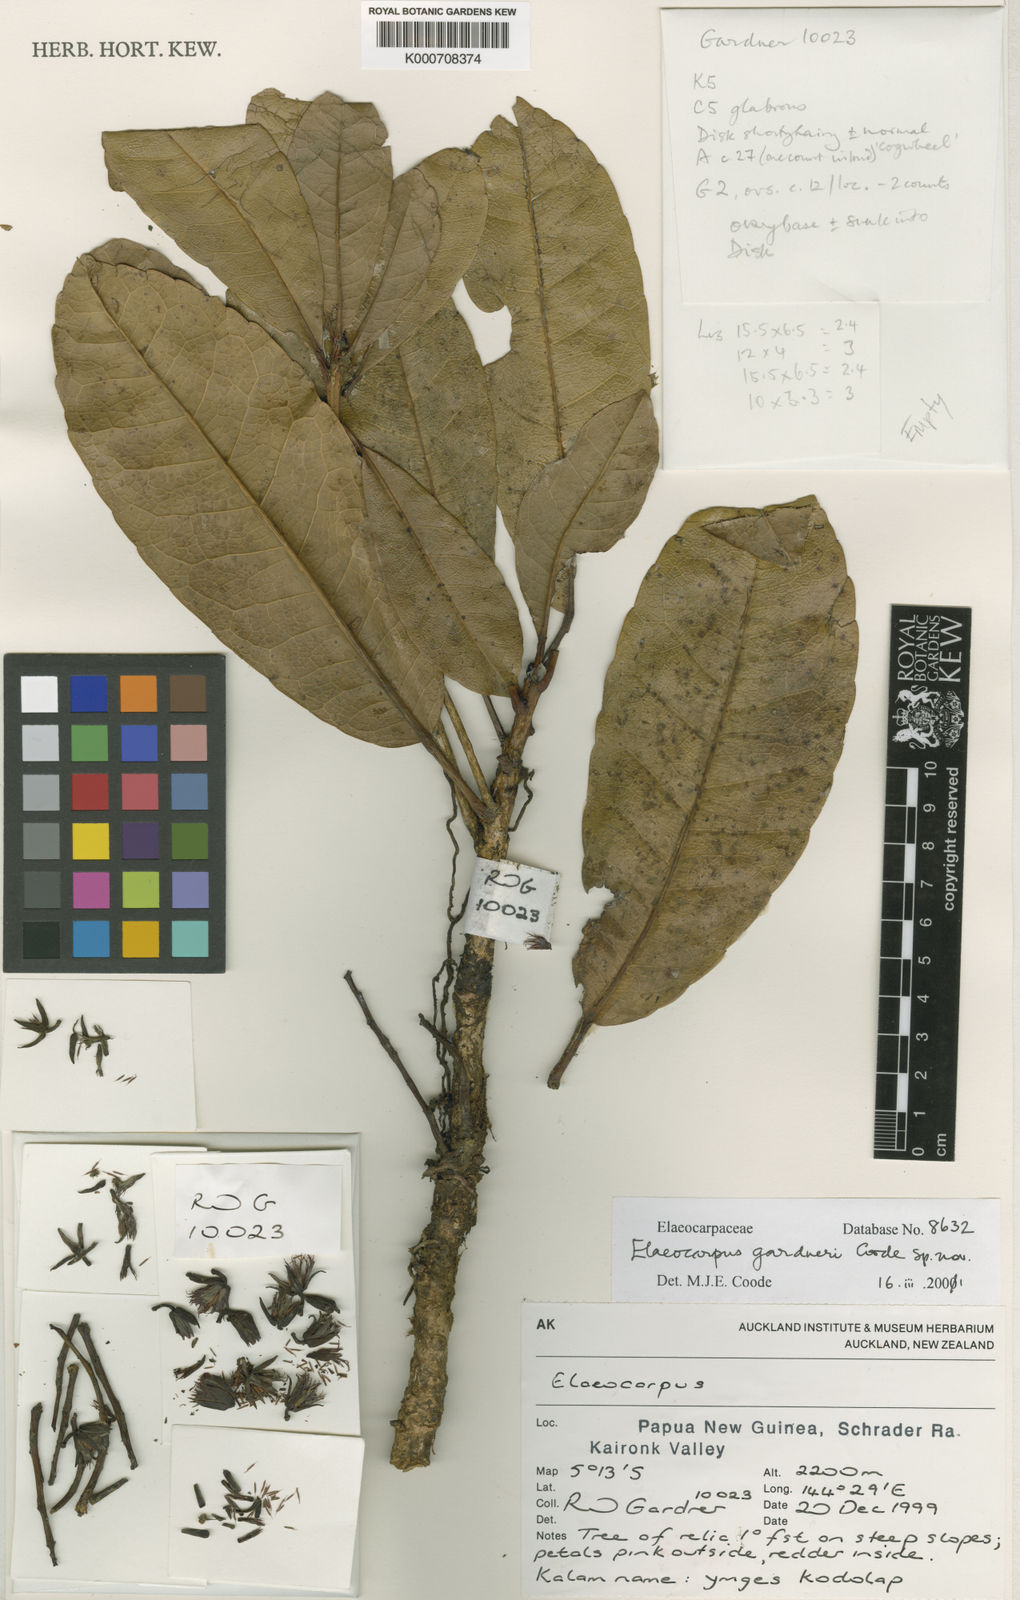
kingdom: Plantae
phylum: Tracheophyta
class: Magnoliopsida
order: Oxalidales
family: Elaeocarpaceae
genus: Elaeocarpus
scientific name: Elaeocarpus gardneri
